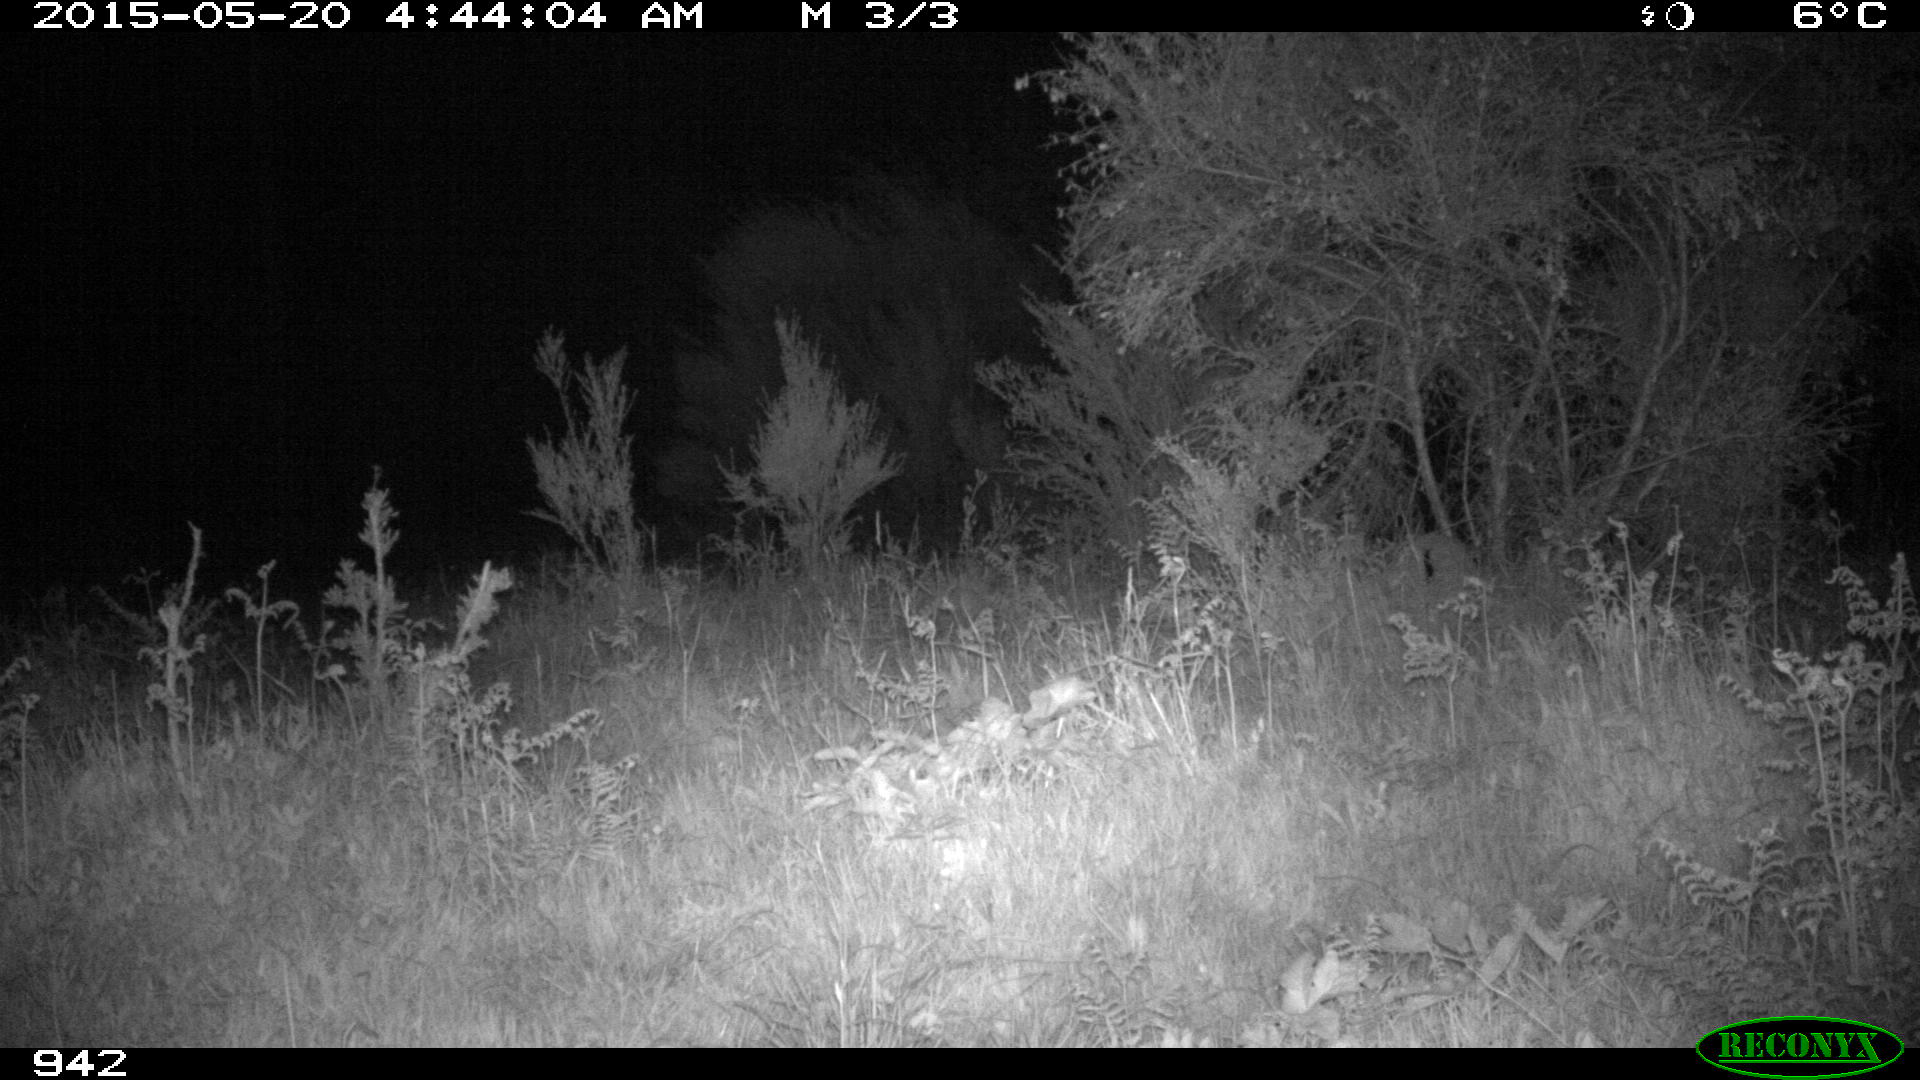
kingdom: Animalia
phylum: Chordata
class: Mammalia
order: Artiodactyla
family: Suidae
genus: Sus
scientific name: Sus scrofa
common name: Wild boar
